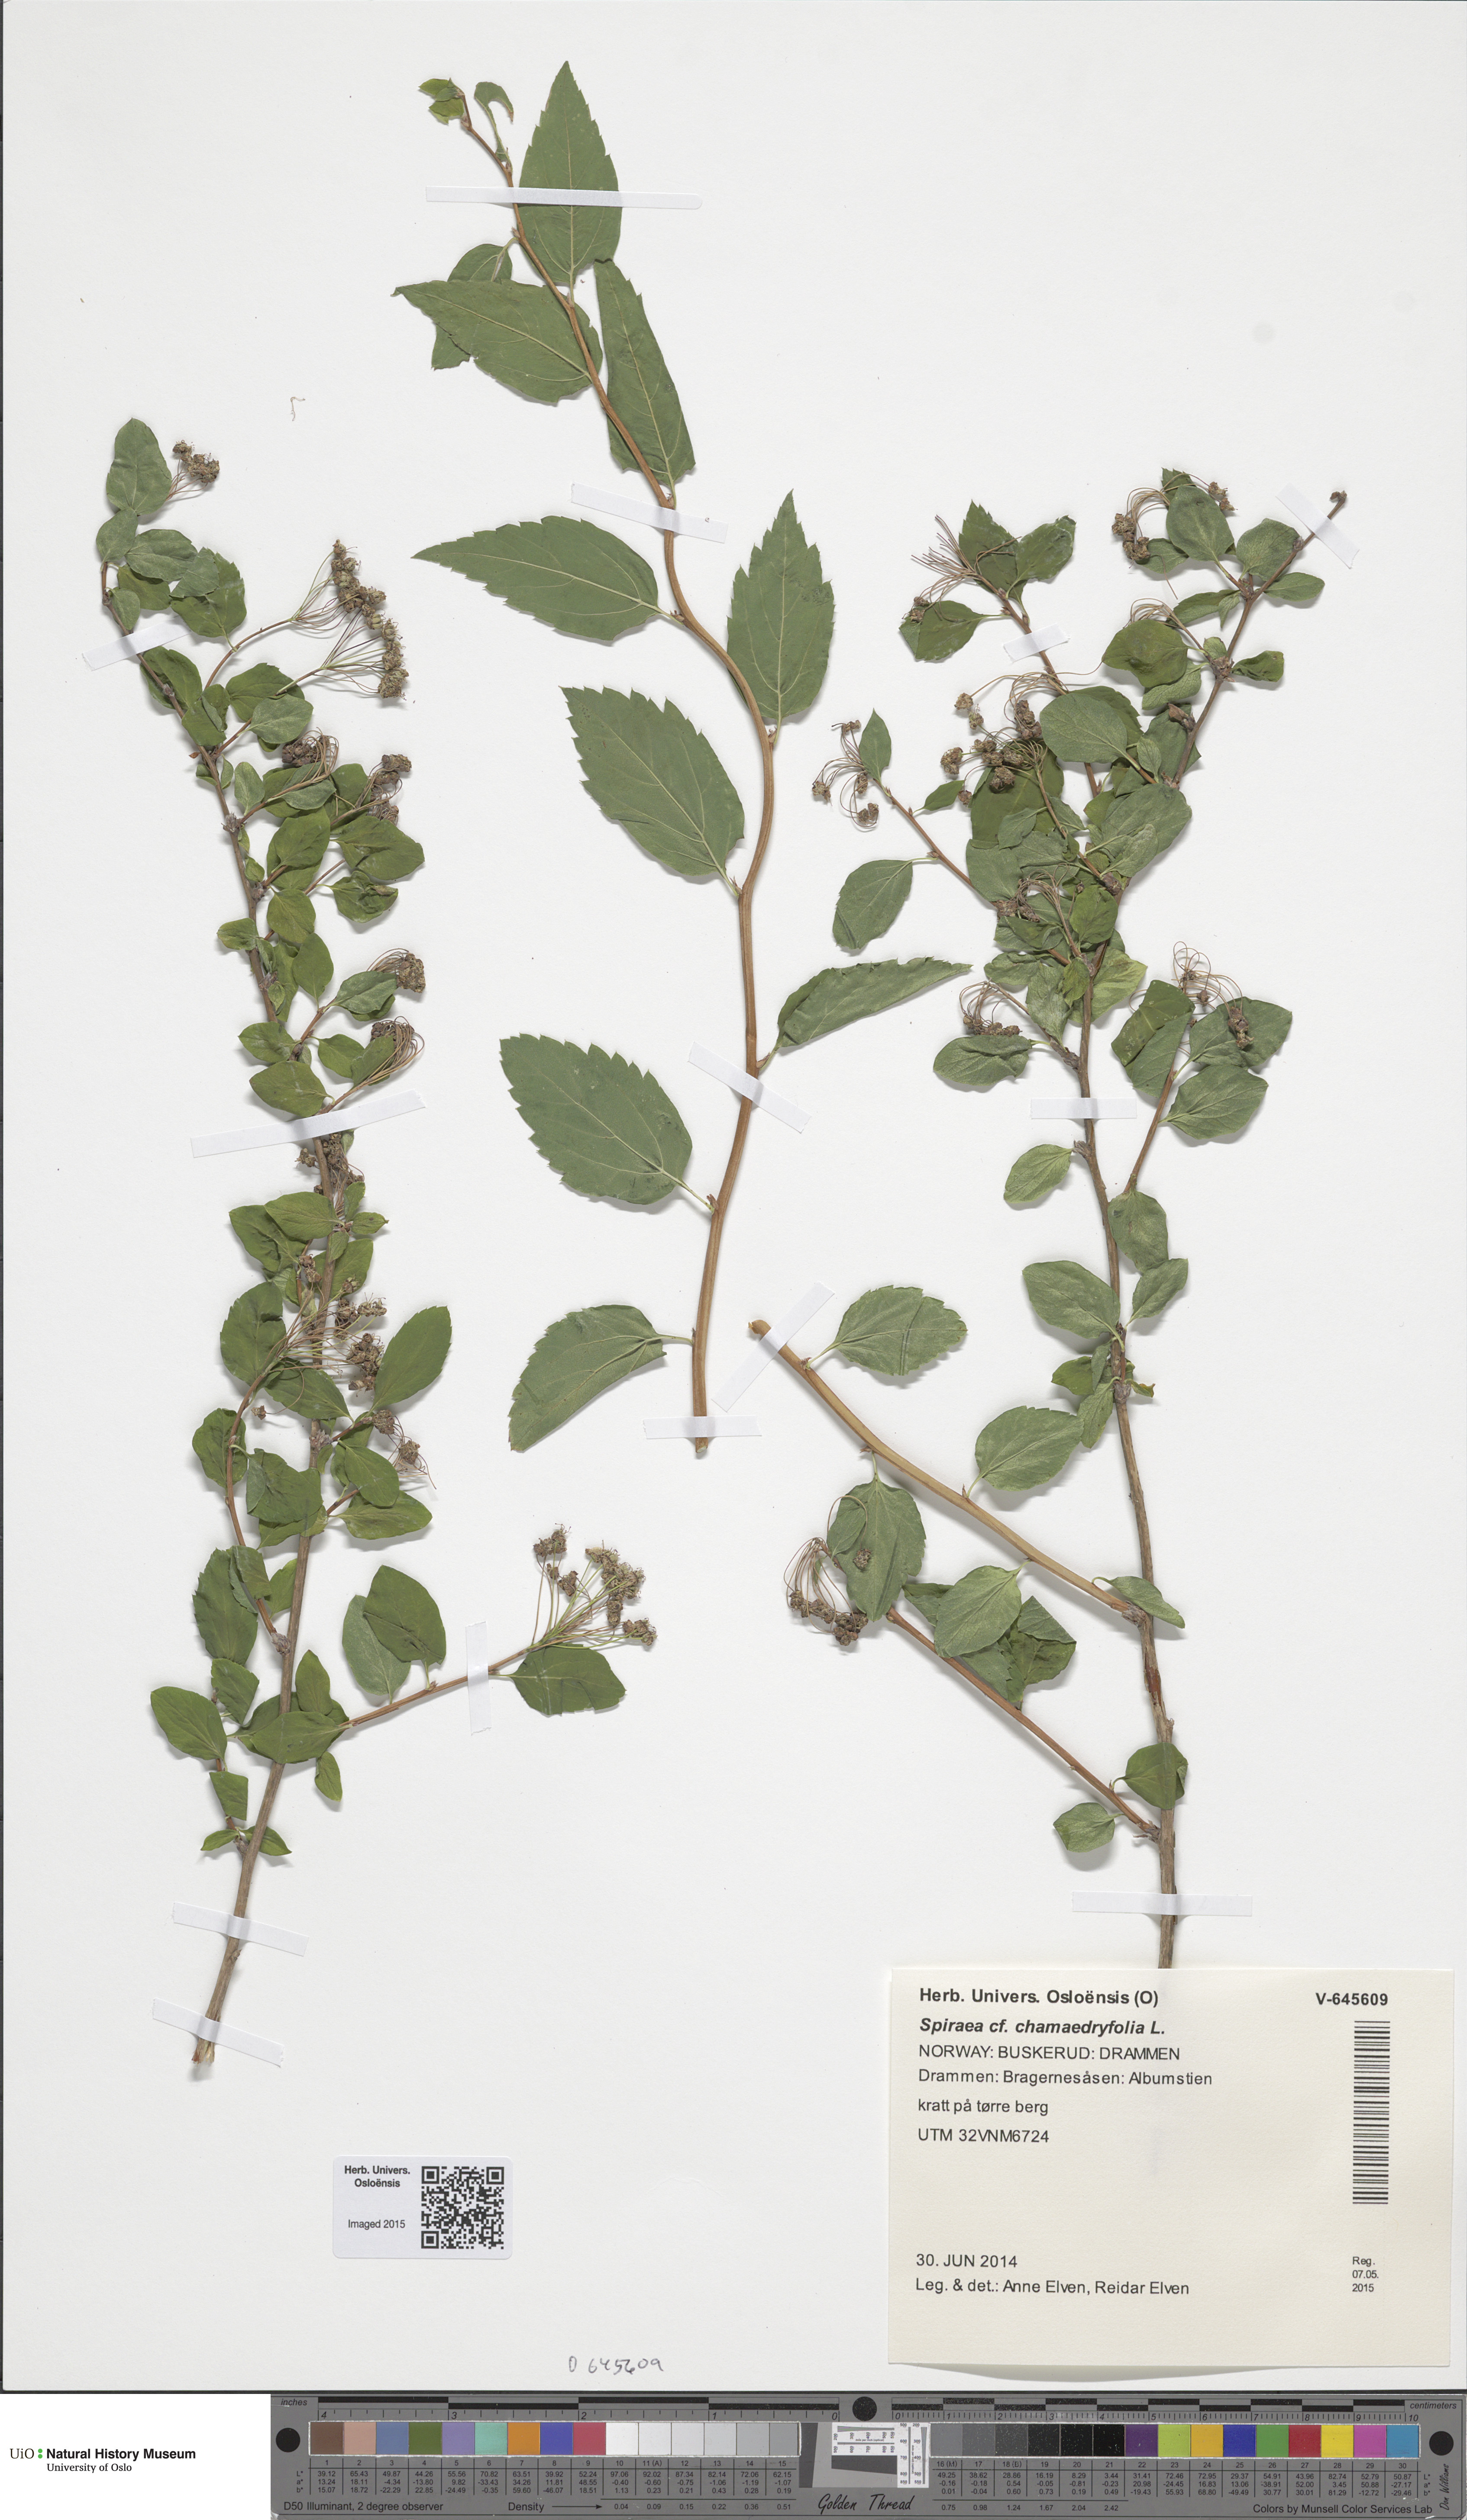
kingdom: Plantae
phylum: Tracheophyta
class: Magnoliopsida
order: Rosales
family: Rosaceae
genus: Spiraea
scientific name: Spiraea chamaedryfolia
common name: Elm-leaved spiraea
